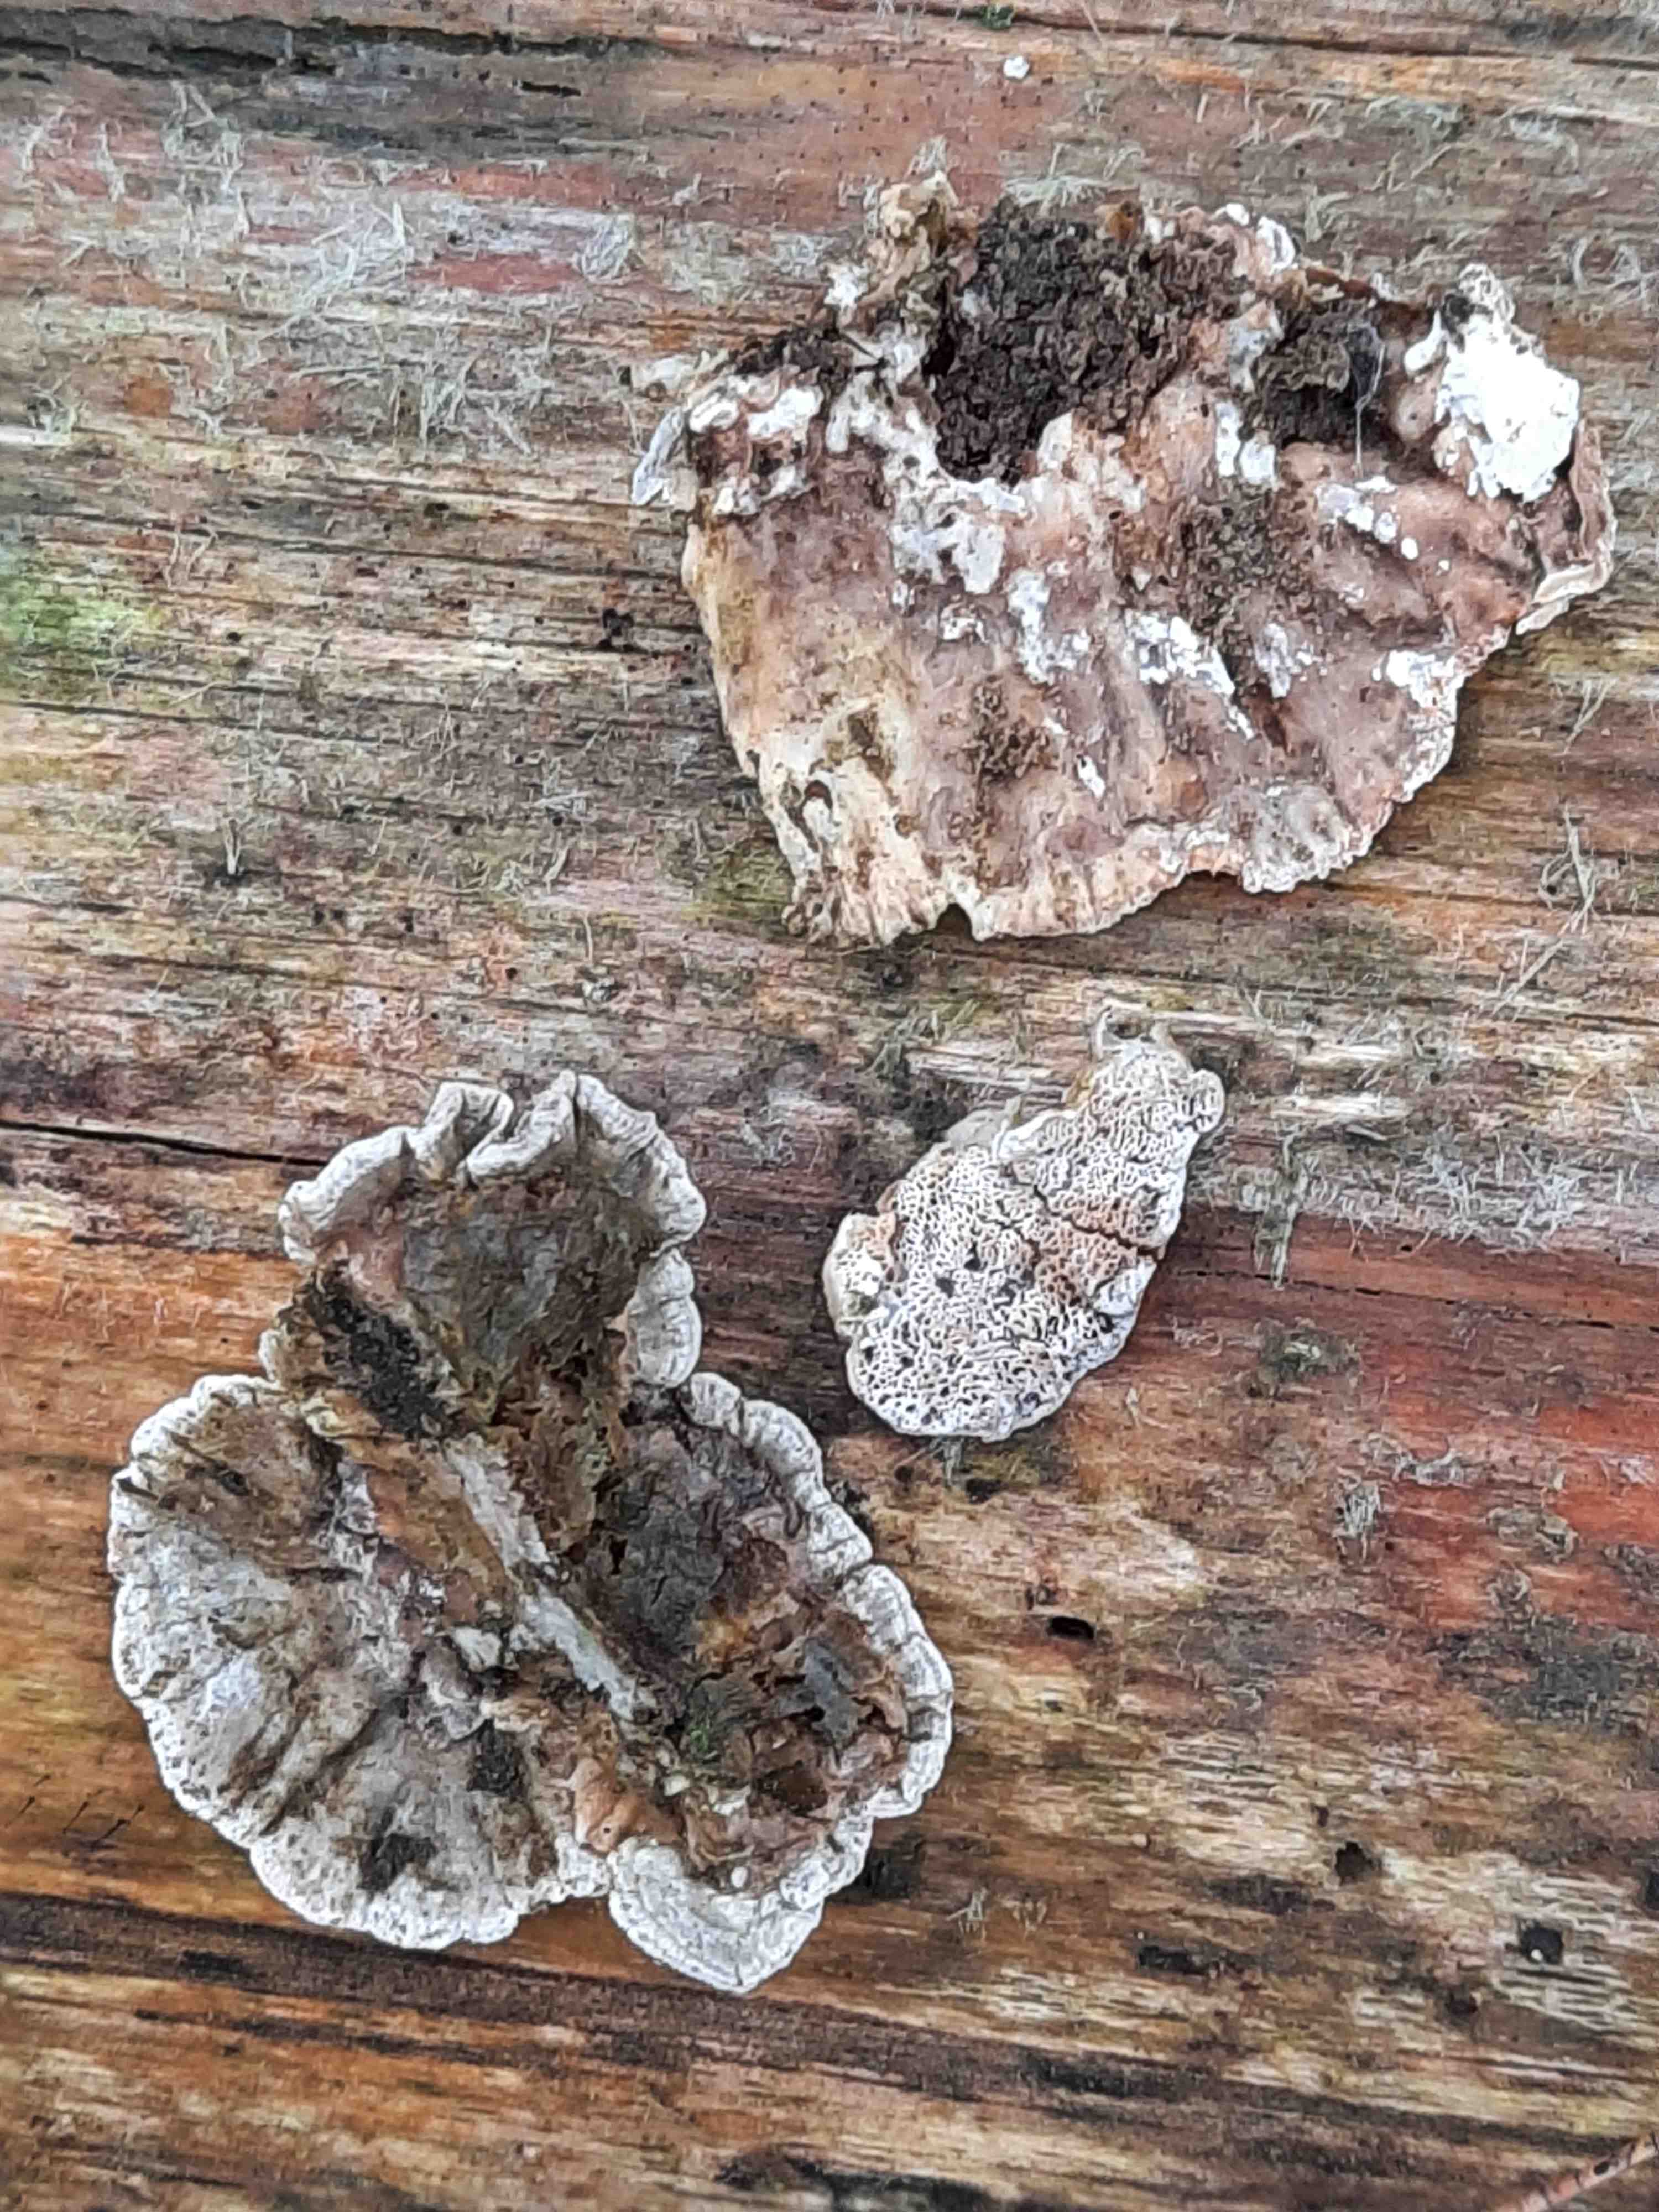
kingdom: Fungi
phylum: Basidiomycota
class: Agaricomycetes
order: Polyporales
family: Incrustoporiaceae
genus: Skeletocutis
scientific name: Skeletocutis carneogrisea
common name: rødgrå krystalporesvamp
